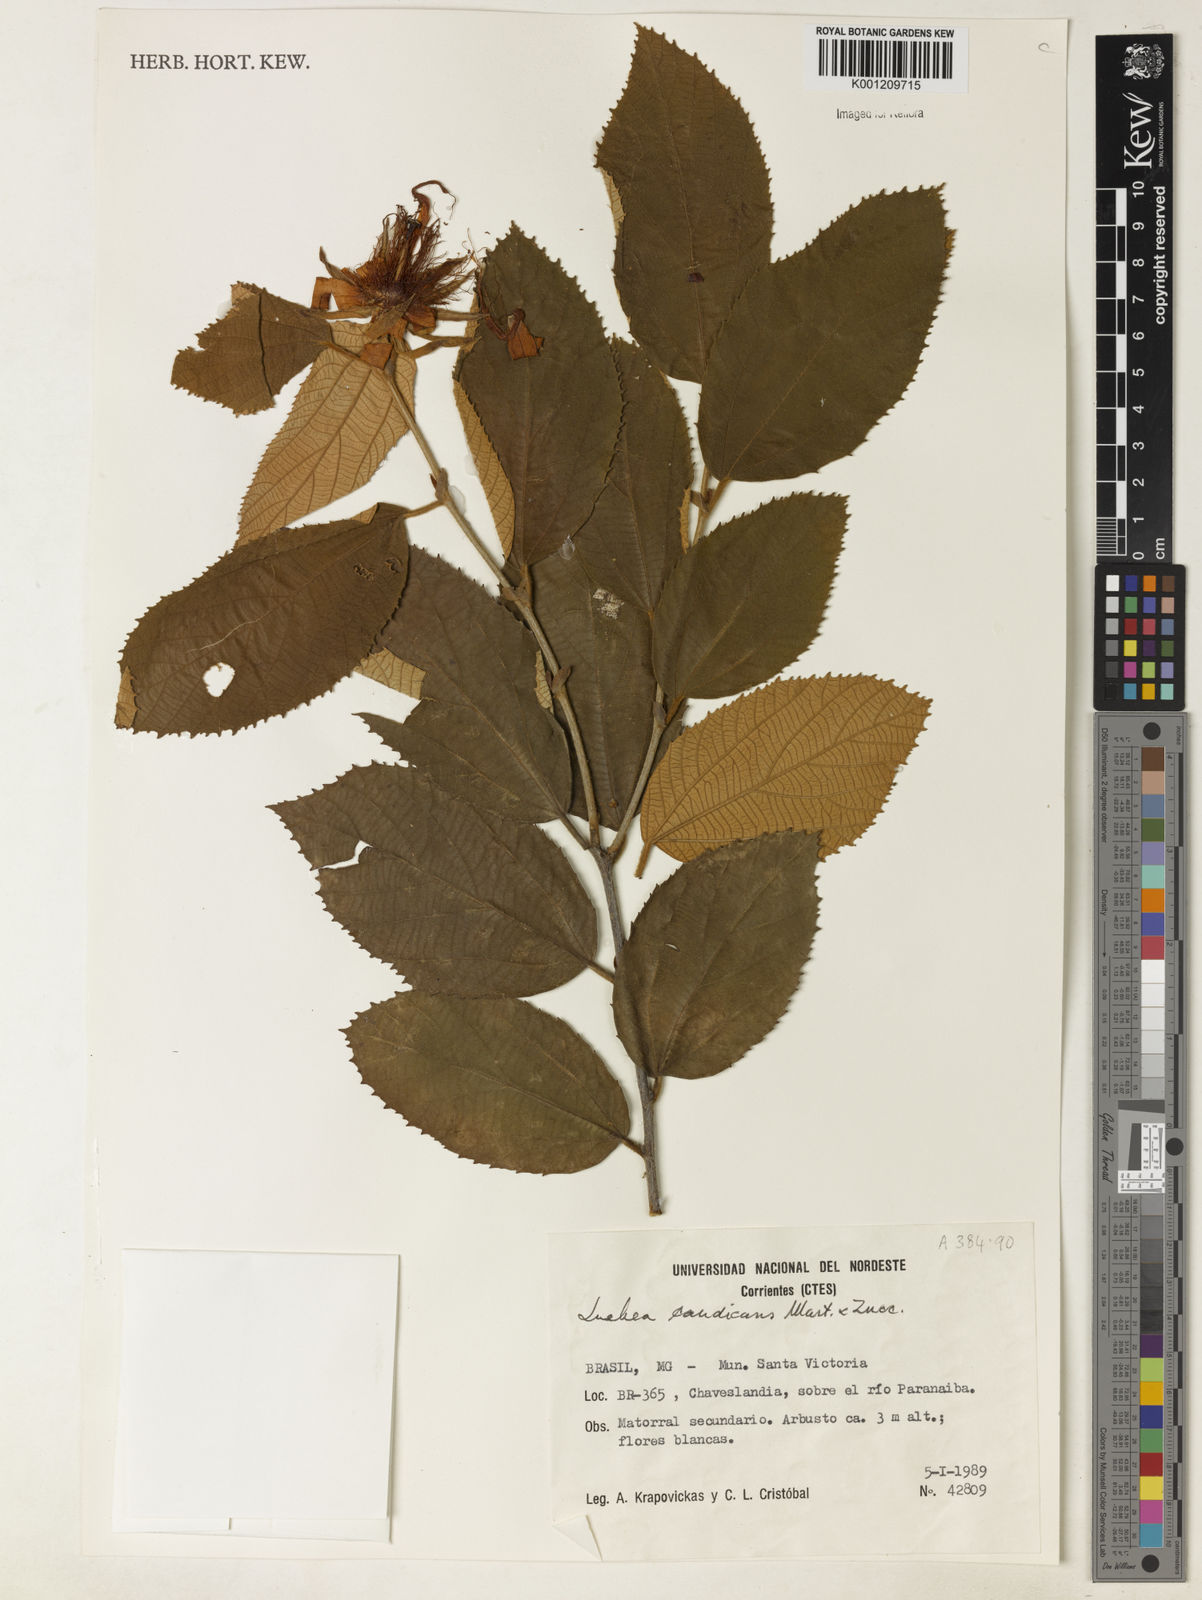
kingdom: Plantae
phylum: Tracheophyta
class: Magnoliopsida
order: Malvales
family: Malvaceae
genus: Luehea
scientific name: Luehea candicans
